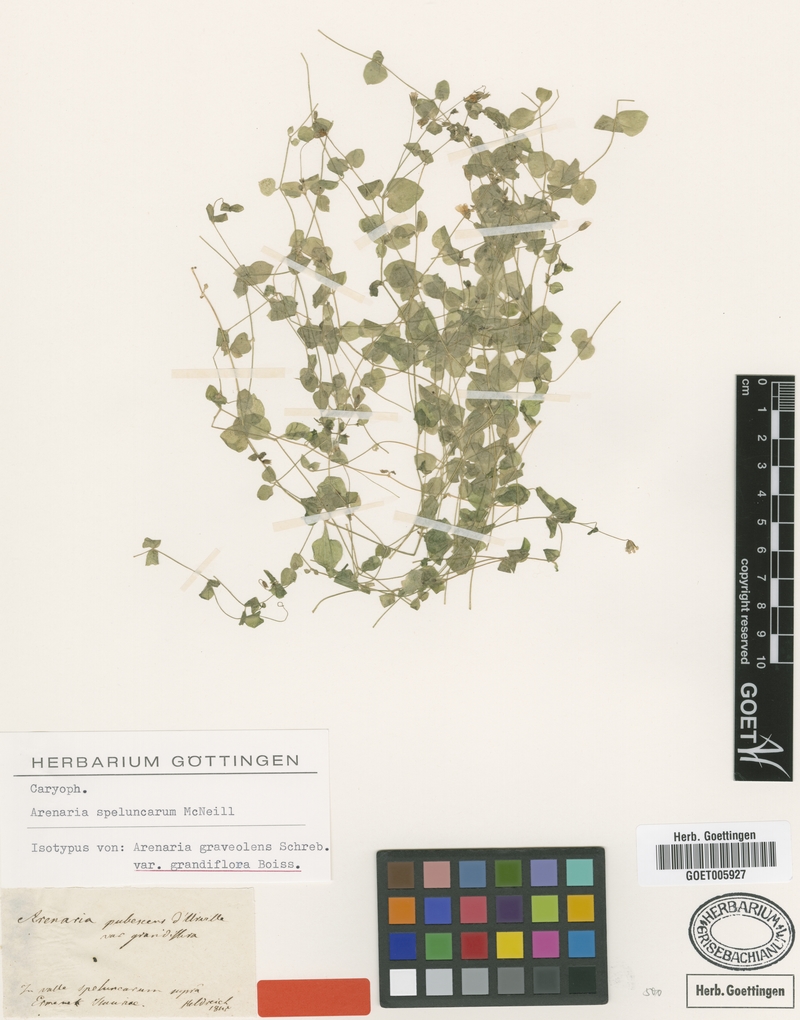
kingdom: Plantae
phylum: Tracheophyta
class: Magnoliopsida
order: Caryophyllales
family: Caryophyllaceae
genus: Arenaria
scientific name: Arenaria speluncarum
